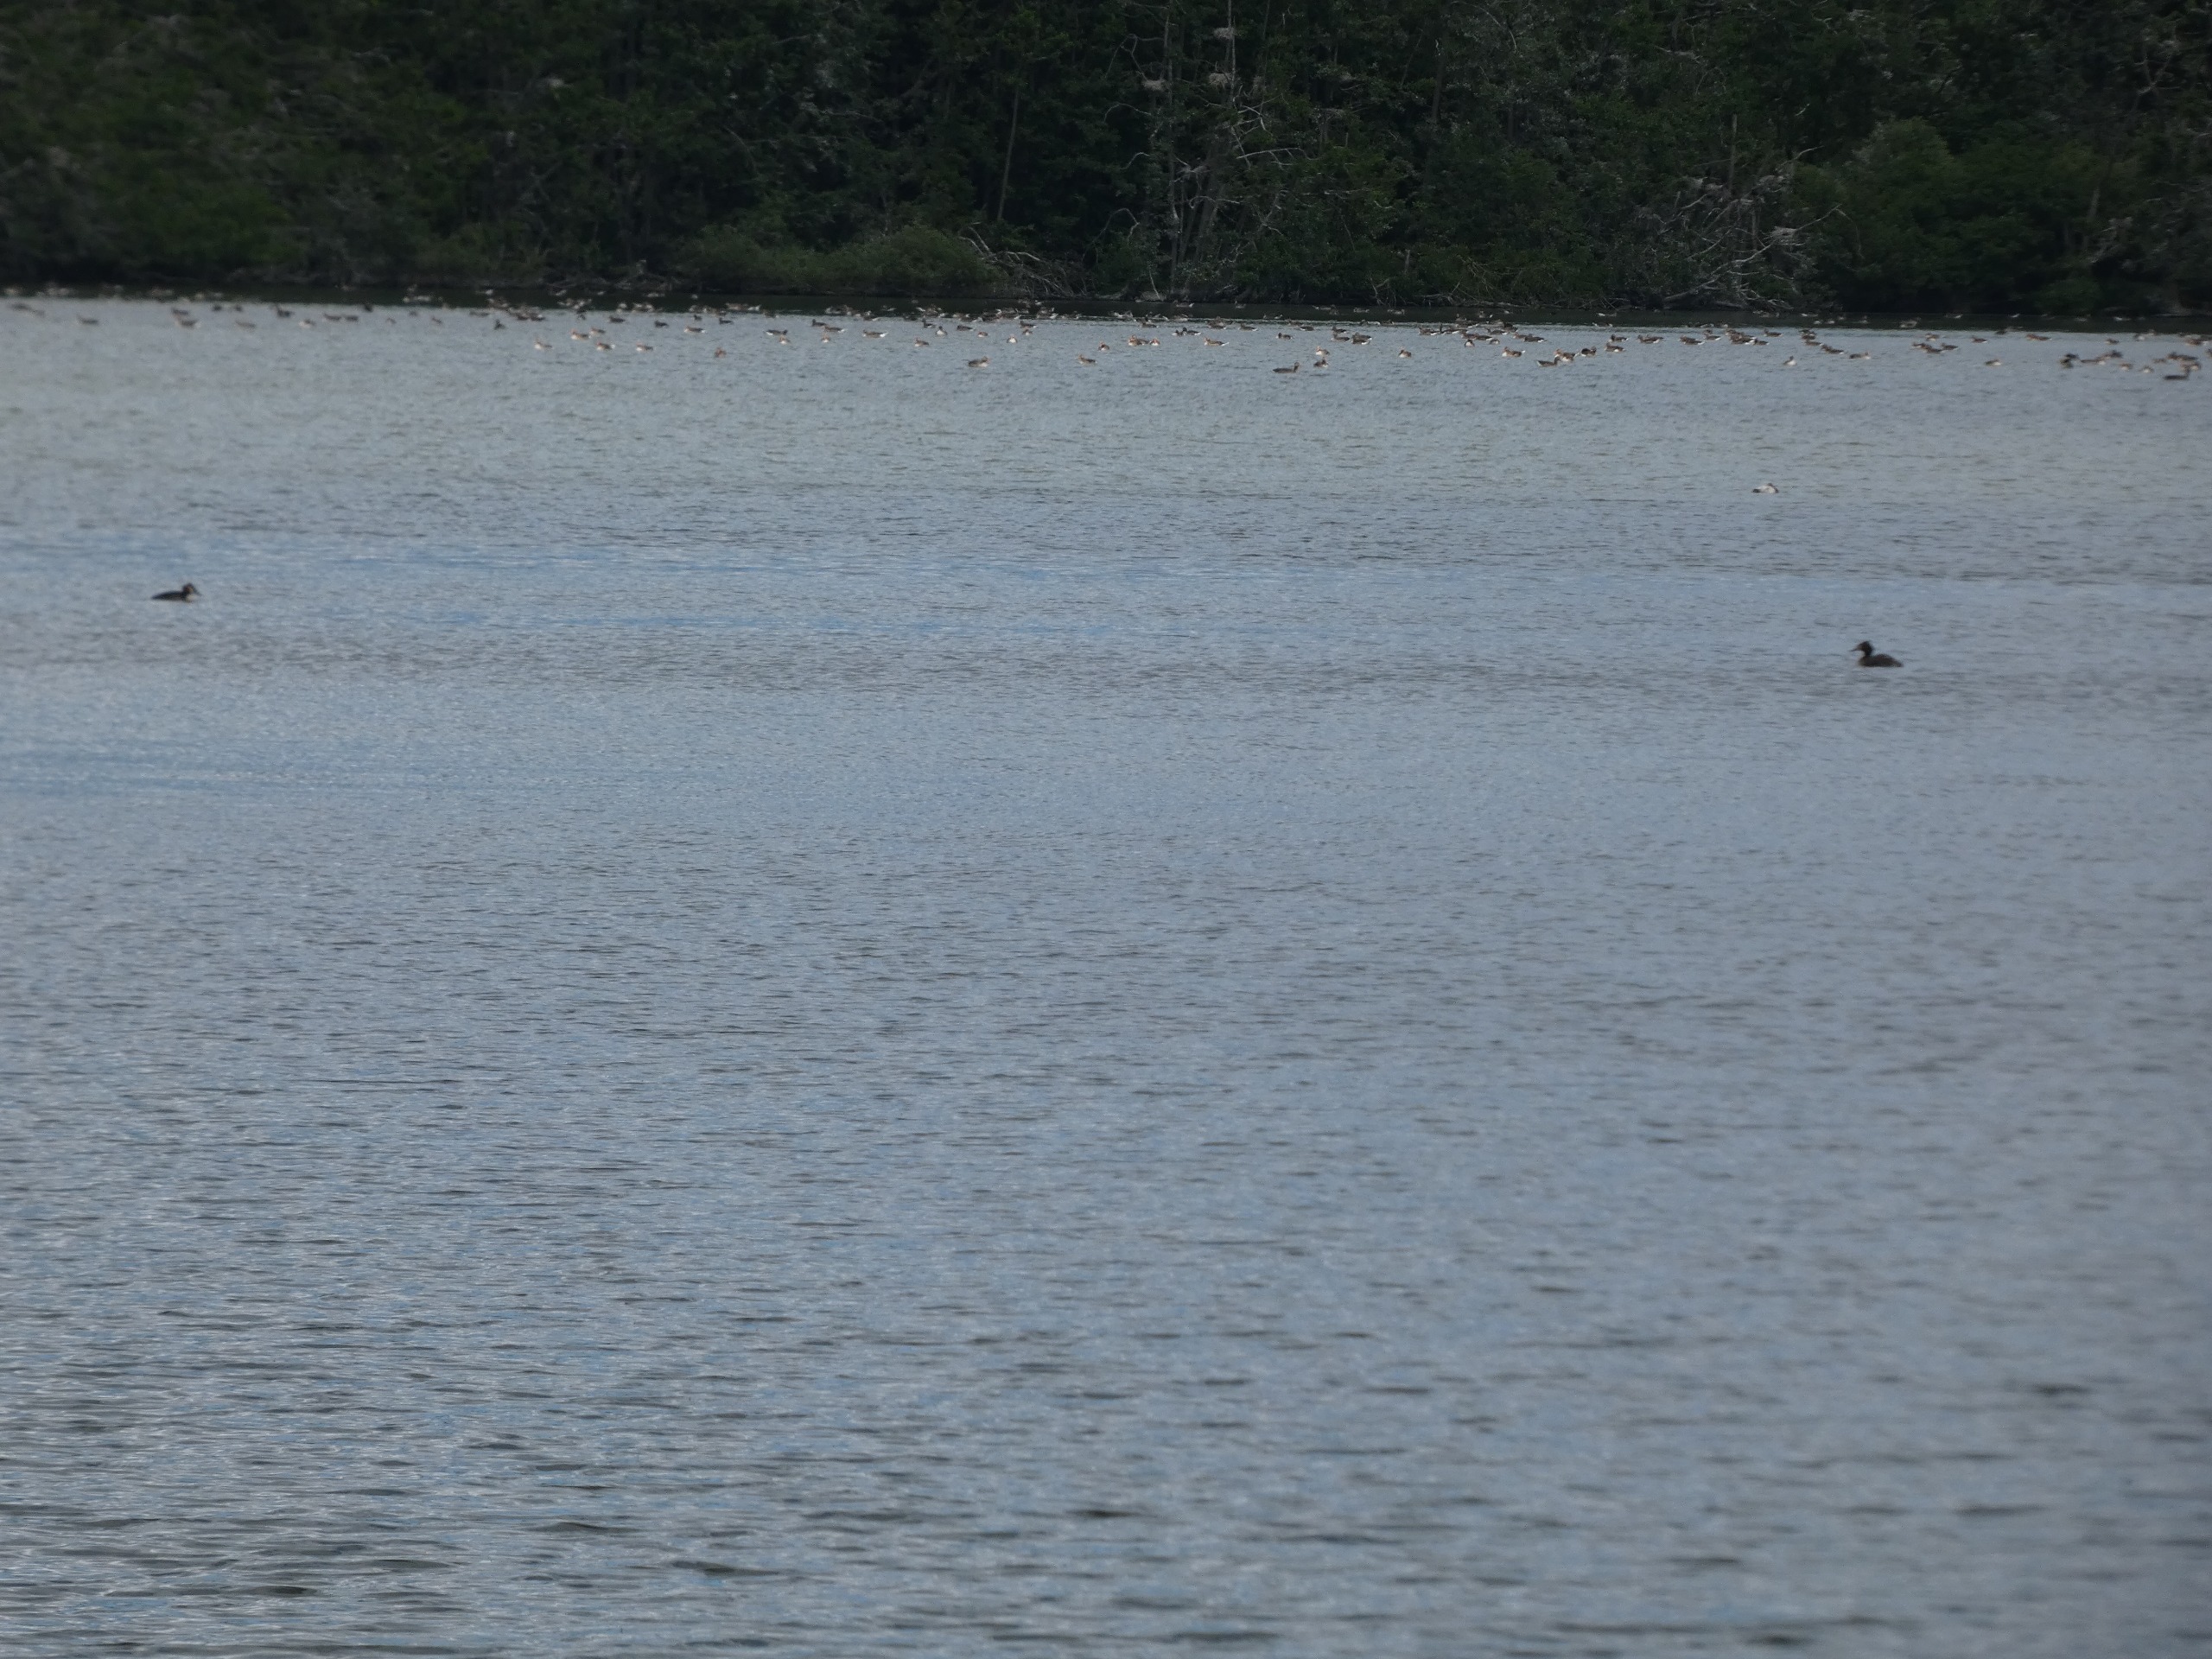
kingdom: Animalia
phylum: Chordata
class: Aves
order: Anseriformes
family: Anatidae
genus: Anser
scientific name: Anser anser
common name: Grågås
